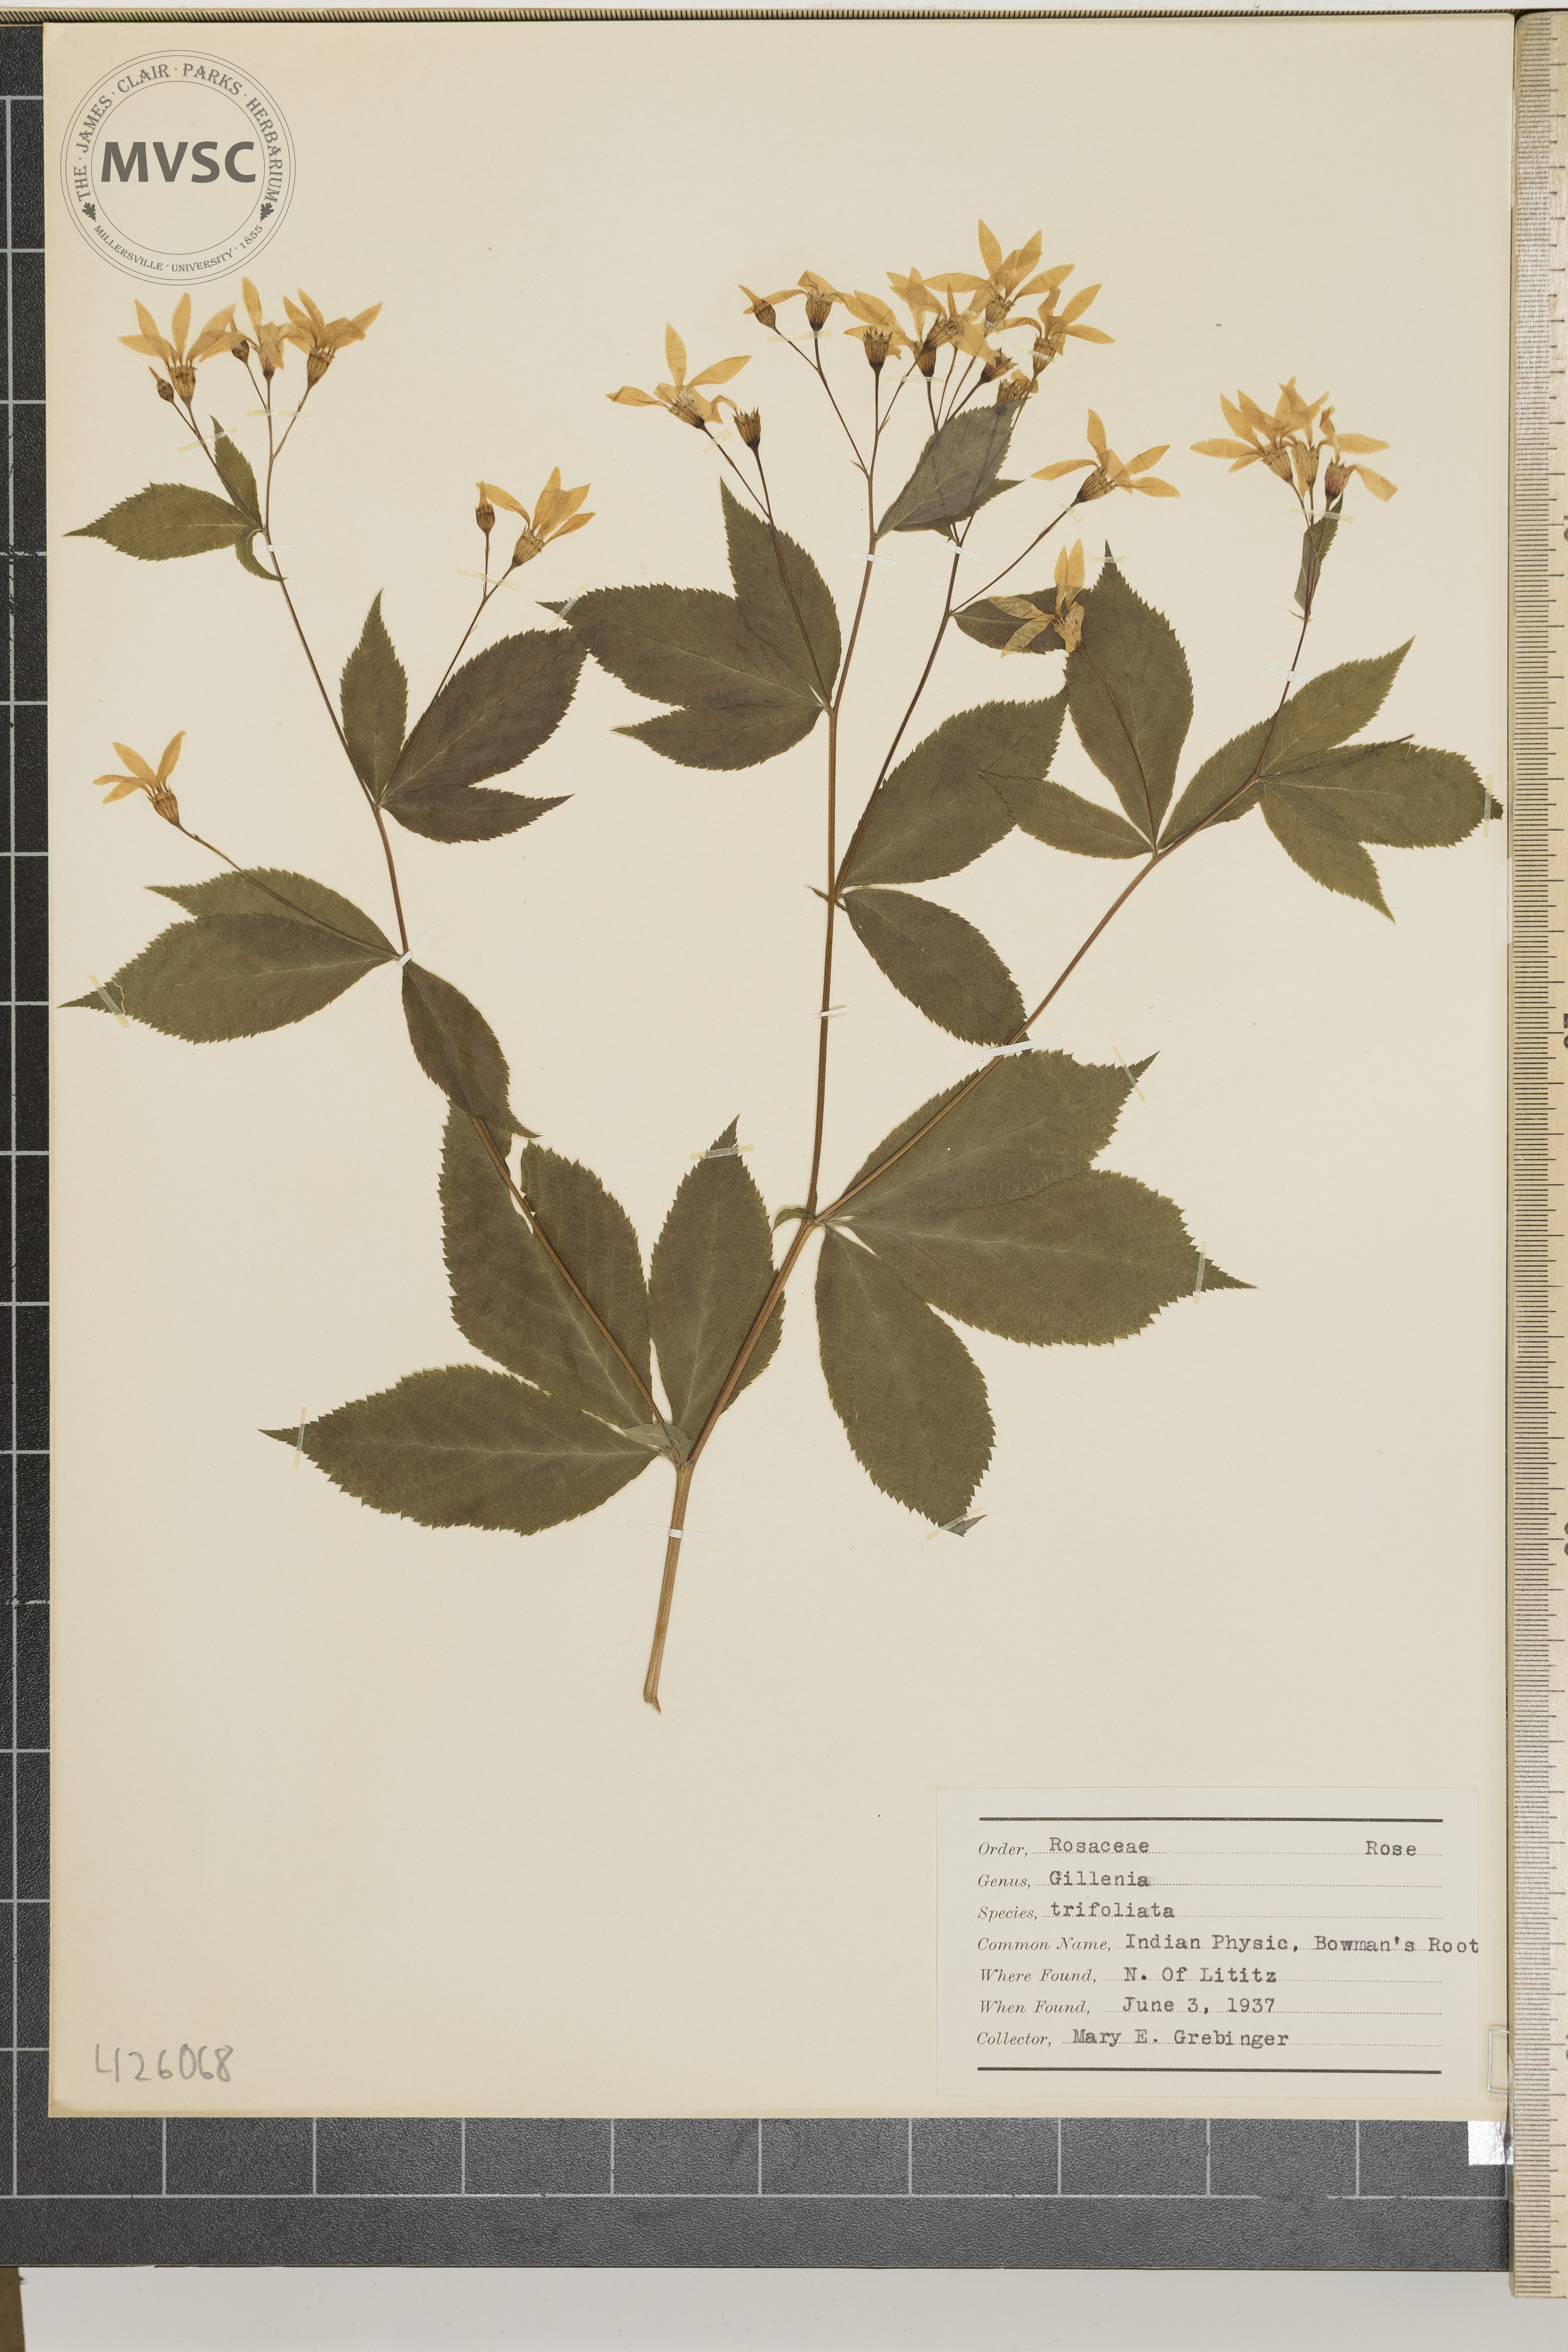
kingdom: Plantae
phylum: Tracheophyta
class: Magnoliopsida
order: Rosales
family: Rosaceae
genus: Gillenia
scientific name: Gillenia trifoliata
